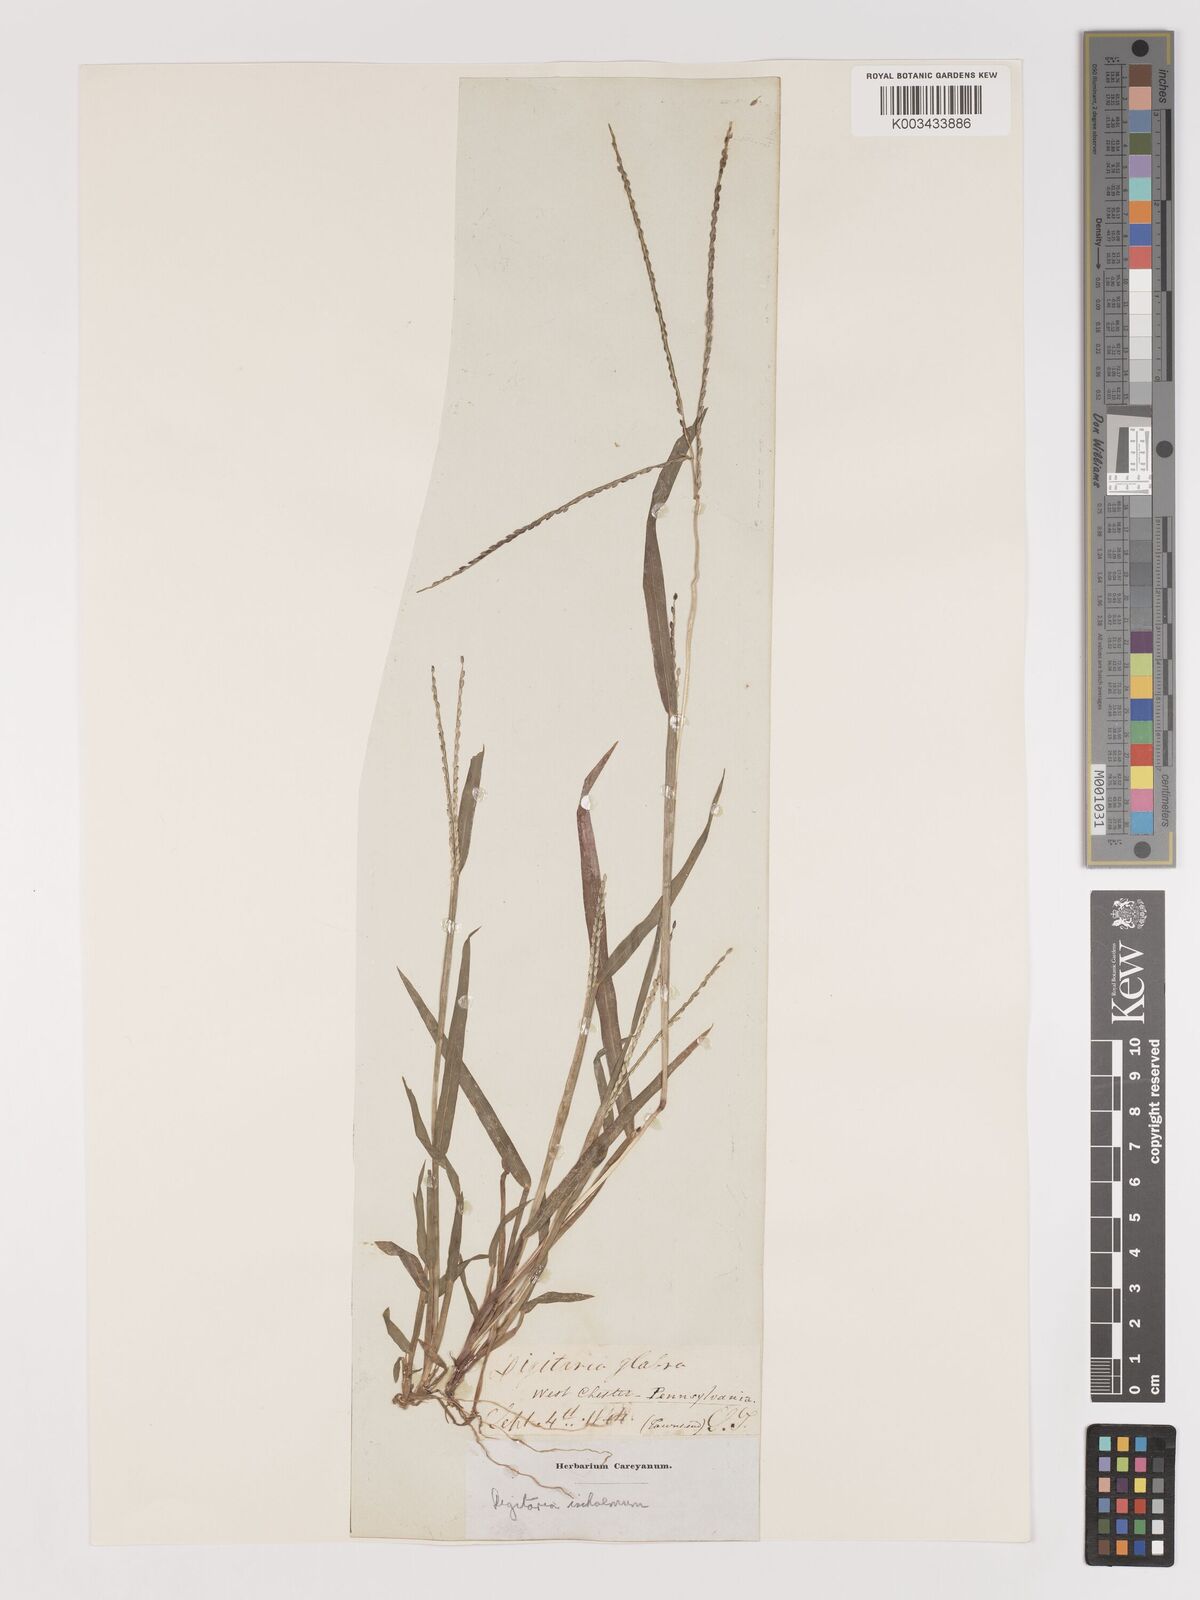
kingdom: Plantae
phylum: Tracheophyta
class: Liliopsida
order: Poales
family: Poaceae
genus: Digitaria
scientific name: Digitaria ischaemum
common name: Smooth crabgrass
